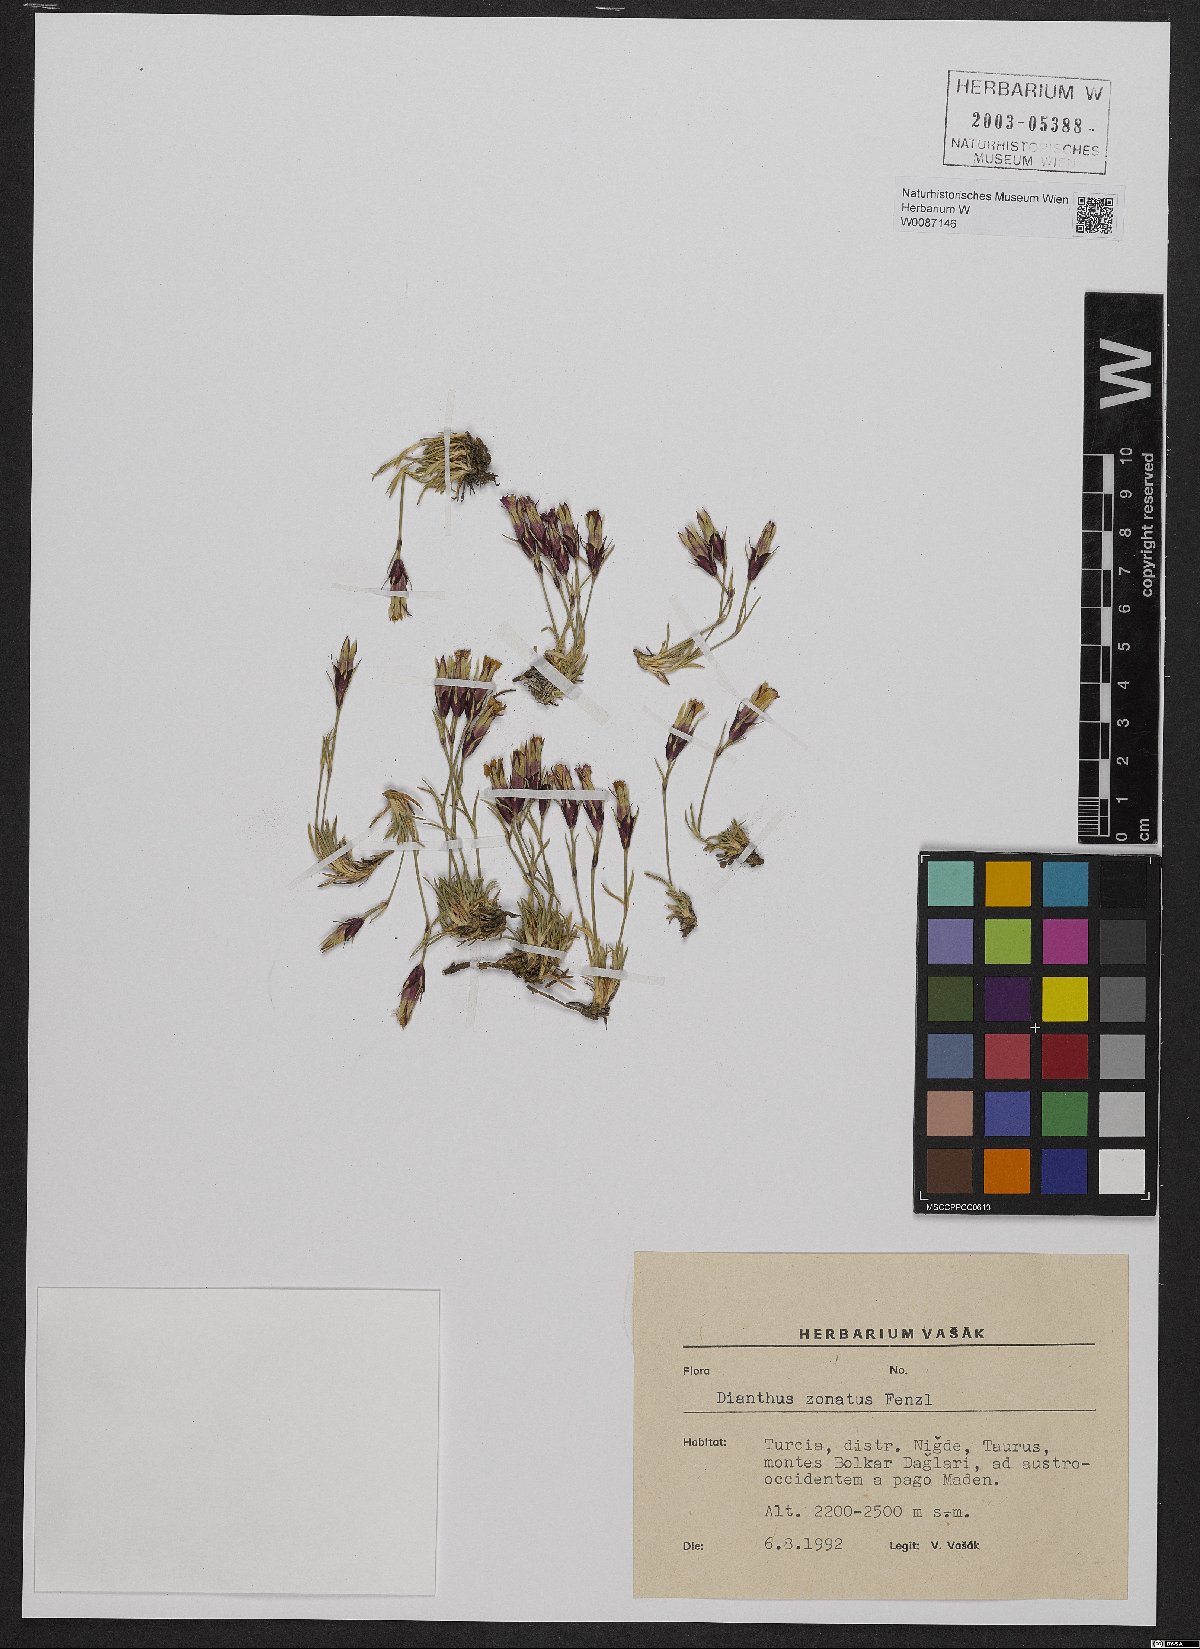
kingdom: Plantae
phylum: Tracheophyta
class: Magnoliopsida
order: Caryophyllales
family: Caryophyllaceae
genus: Dianthus
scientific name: Dianthus zonatus
